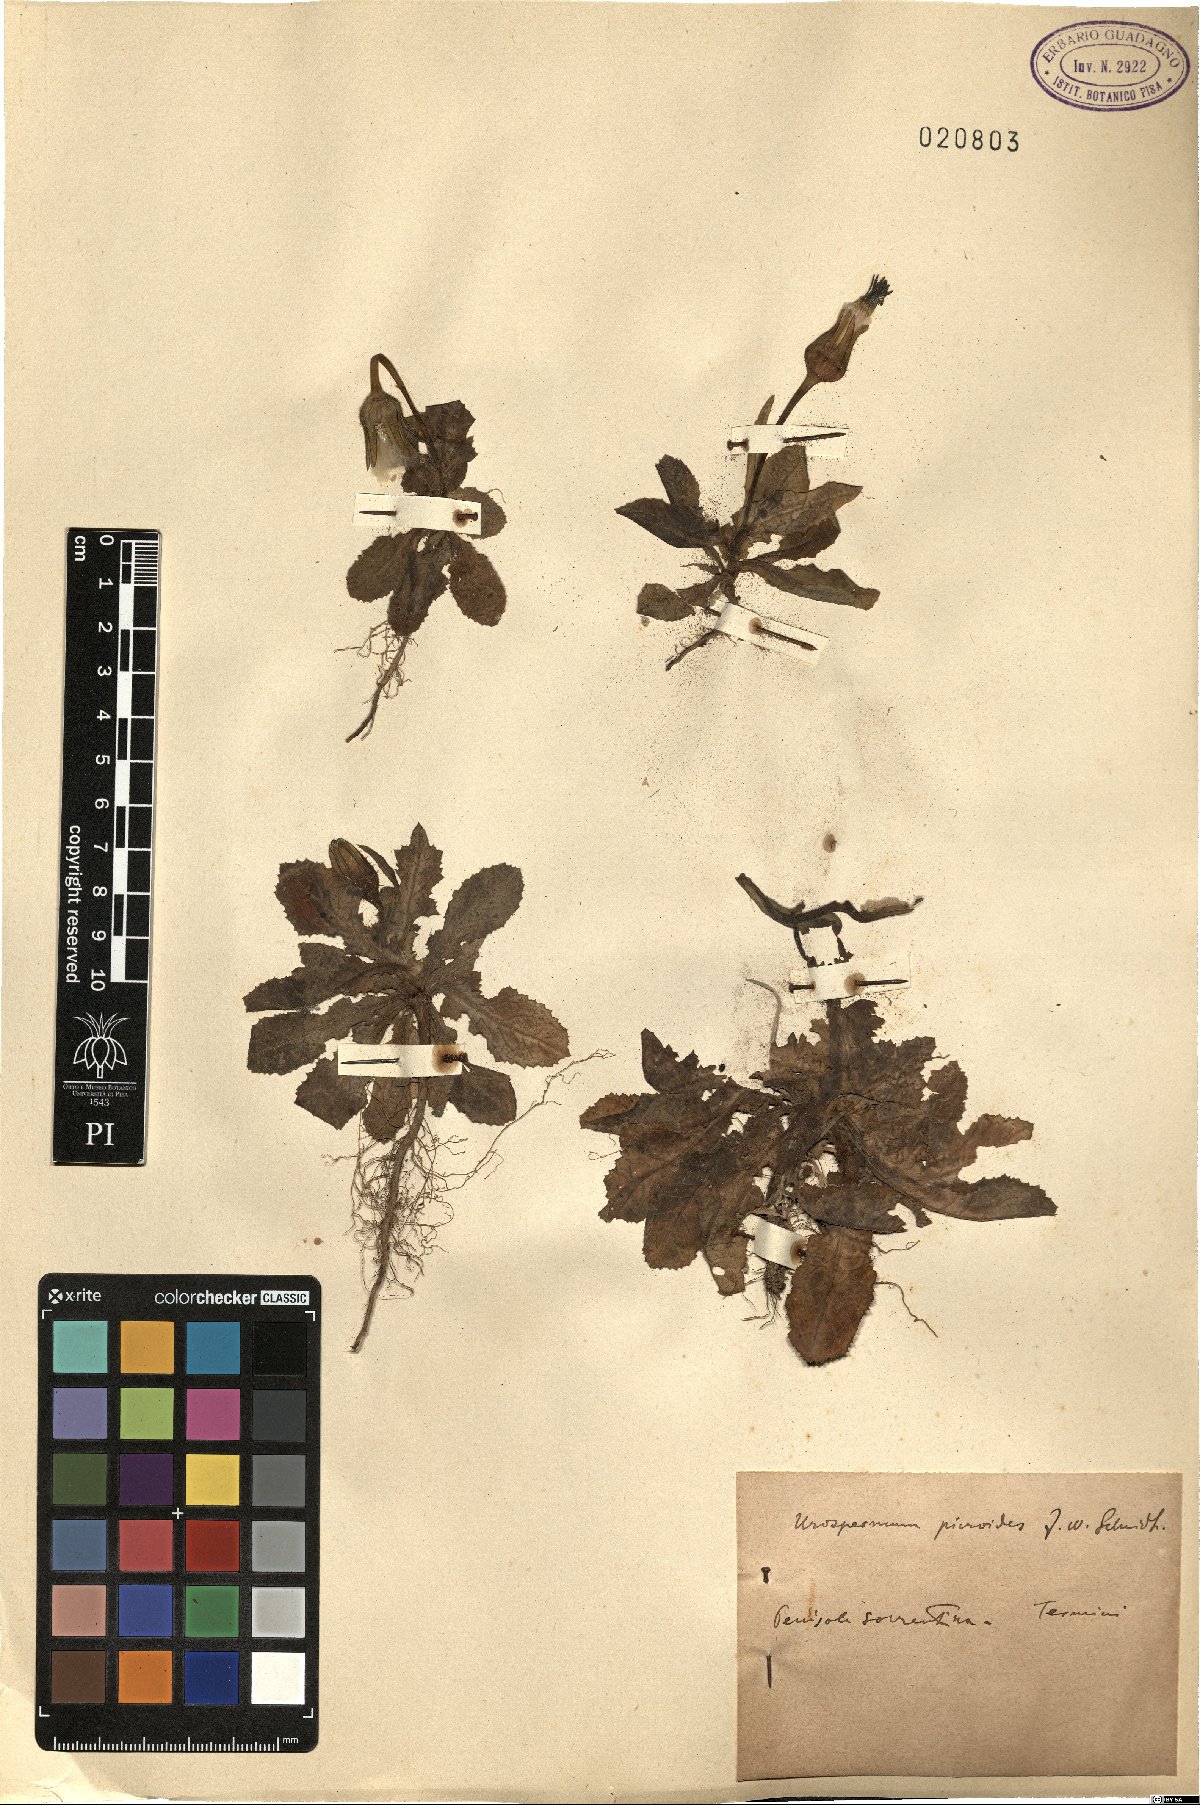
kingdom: Plantae
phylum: Tracheophyta
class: Magnoliopsida
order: Asterales
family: Asteraceae
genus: Urospermum
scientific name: Urospermum picroides
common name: False hawkbit
